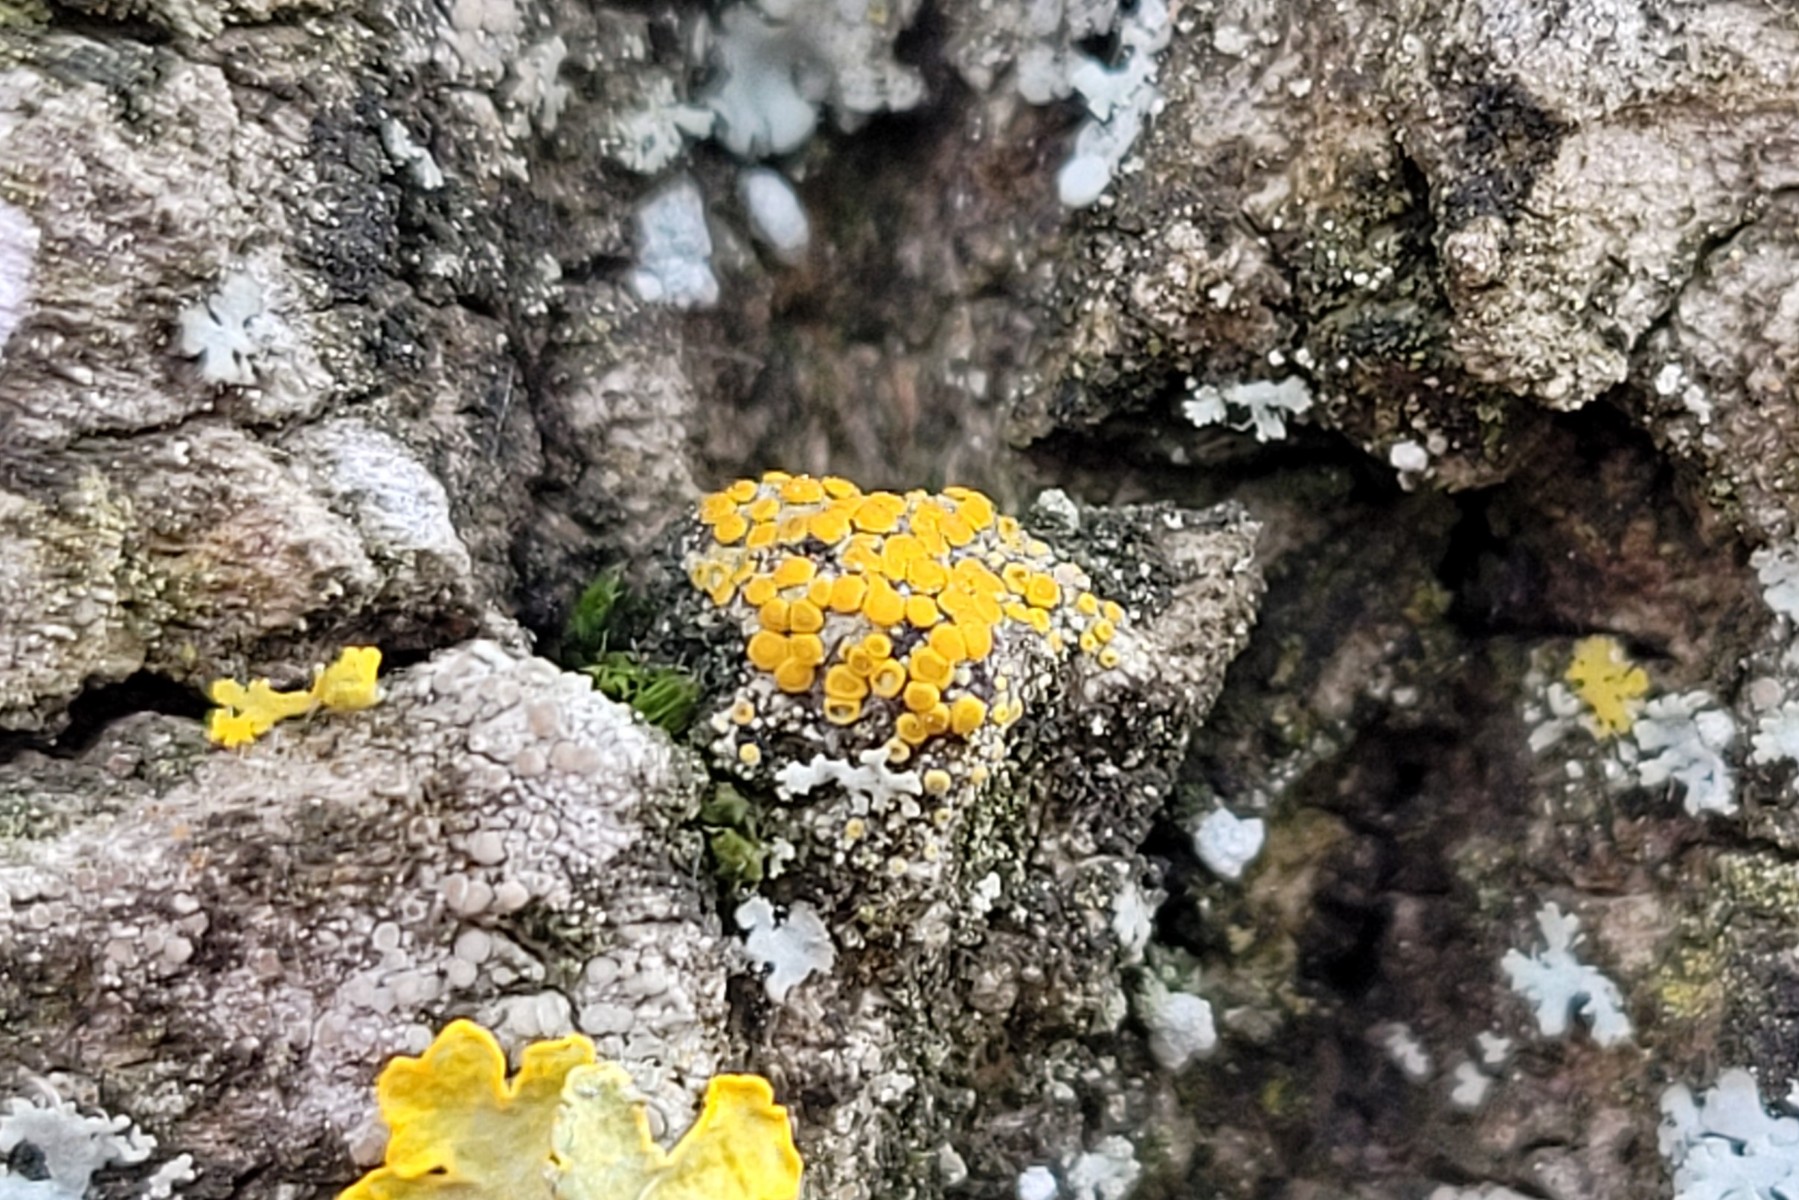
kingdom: Fungi
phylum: Ascomycota
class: Lecanoromycetes
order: Teloschistales
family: Teloschistaceae
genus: Athallia
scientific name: Athallia cerinella
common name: kvist-orangelav
